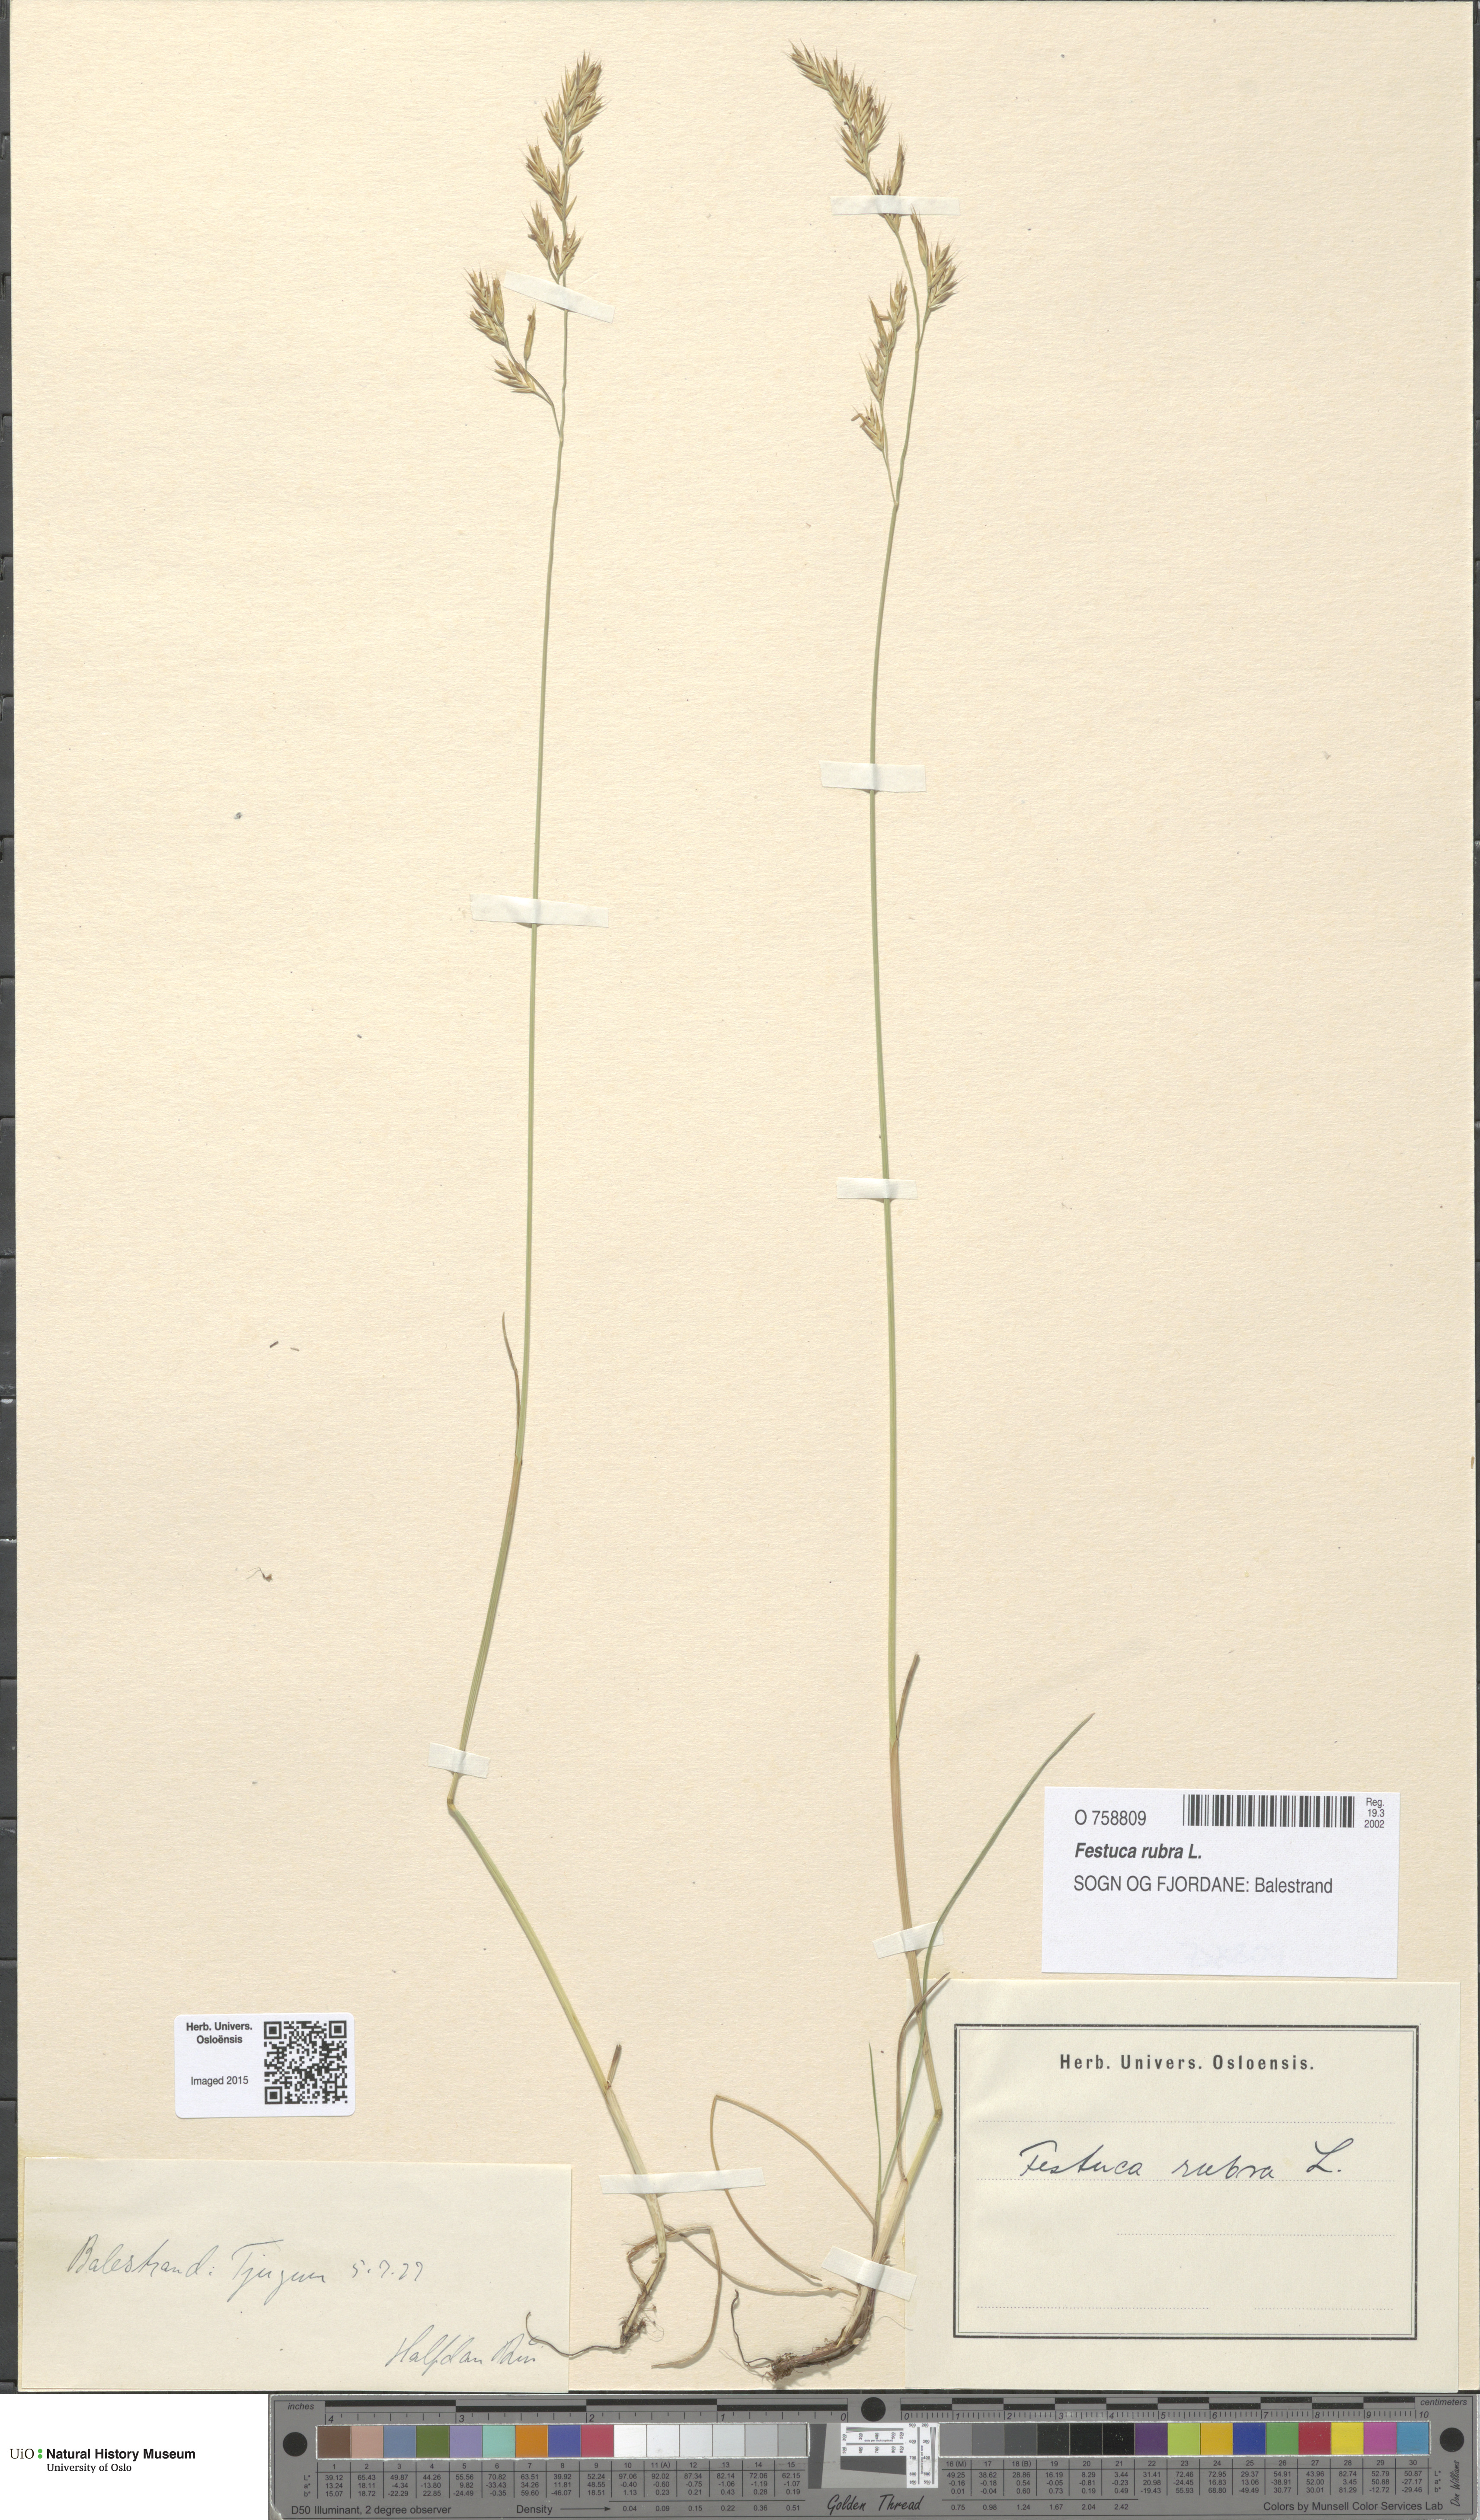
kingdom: Plantae
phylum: Tracheophyta
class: Liliopsida
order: Poales
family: Poaceae
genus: Festuca
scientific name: Festuca rubra
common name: Red fescue
